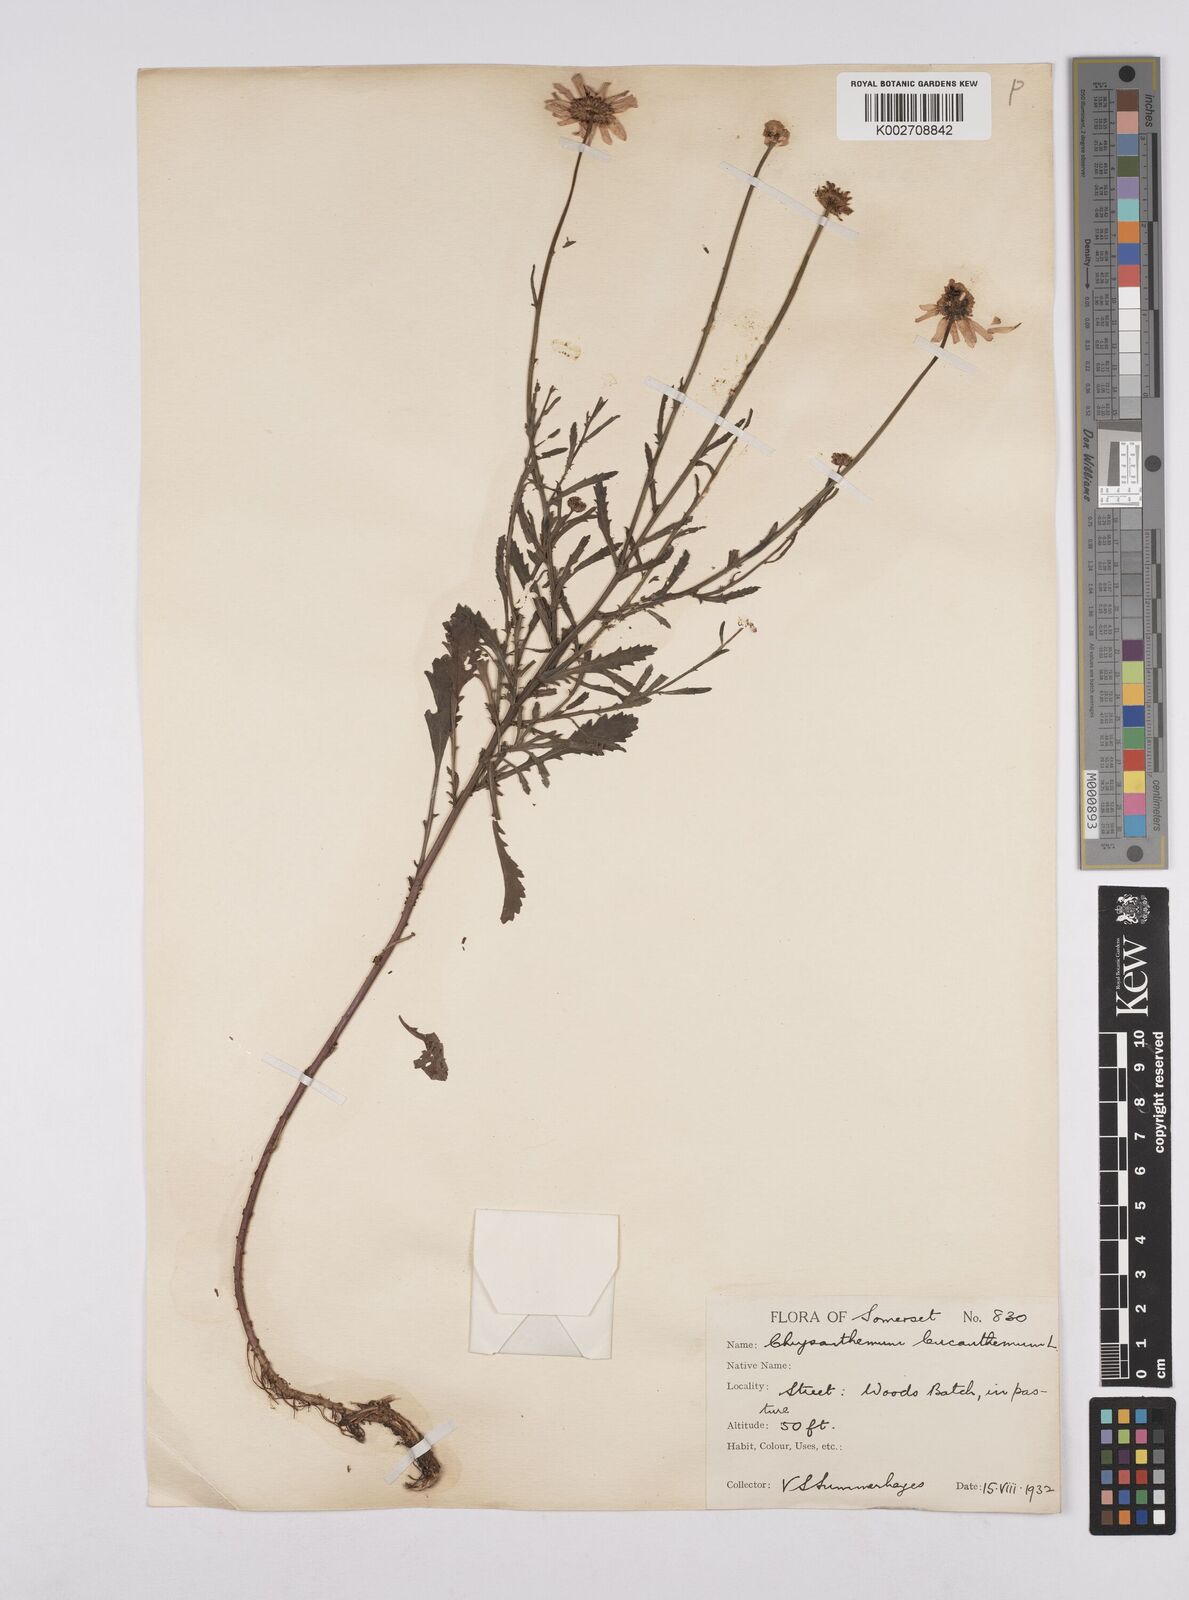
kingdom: Plantae
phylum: Tracheophyta
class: Magnoliopsida
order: Asterales
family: Asteraceae
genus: Leucanthemum
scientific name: Leucanthemum
